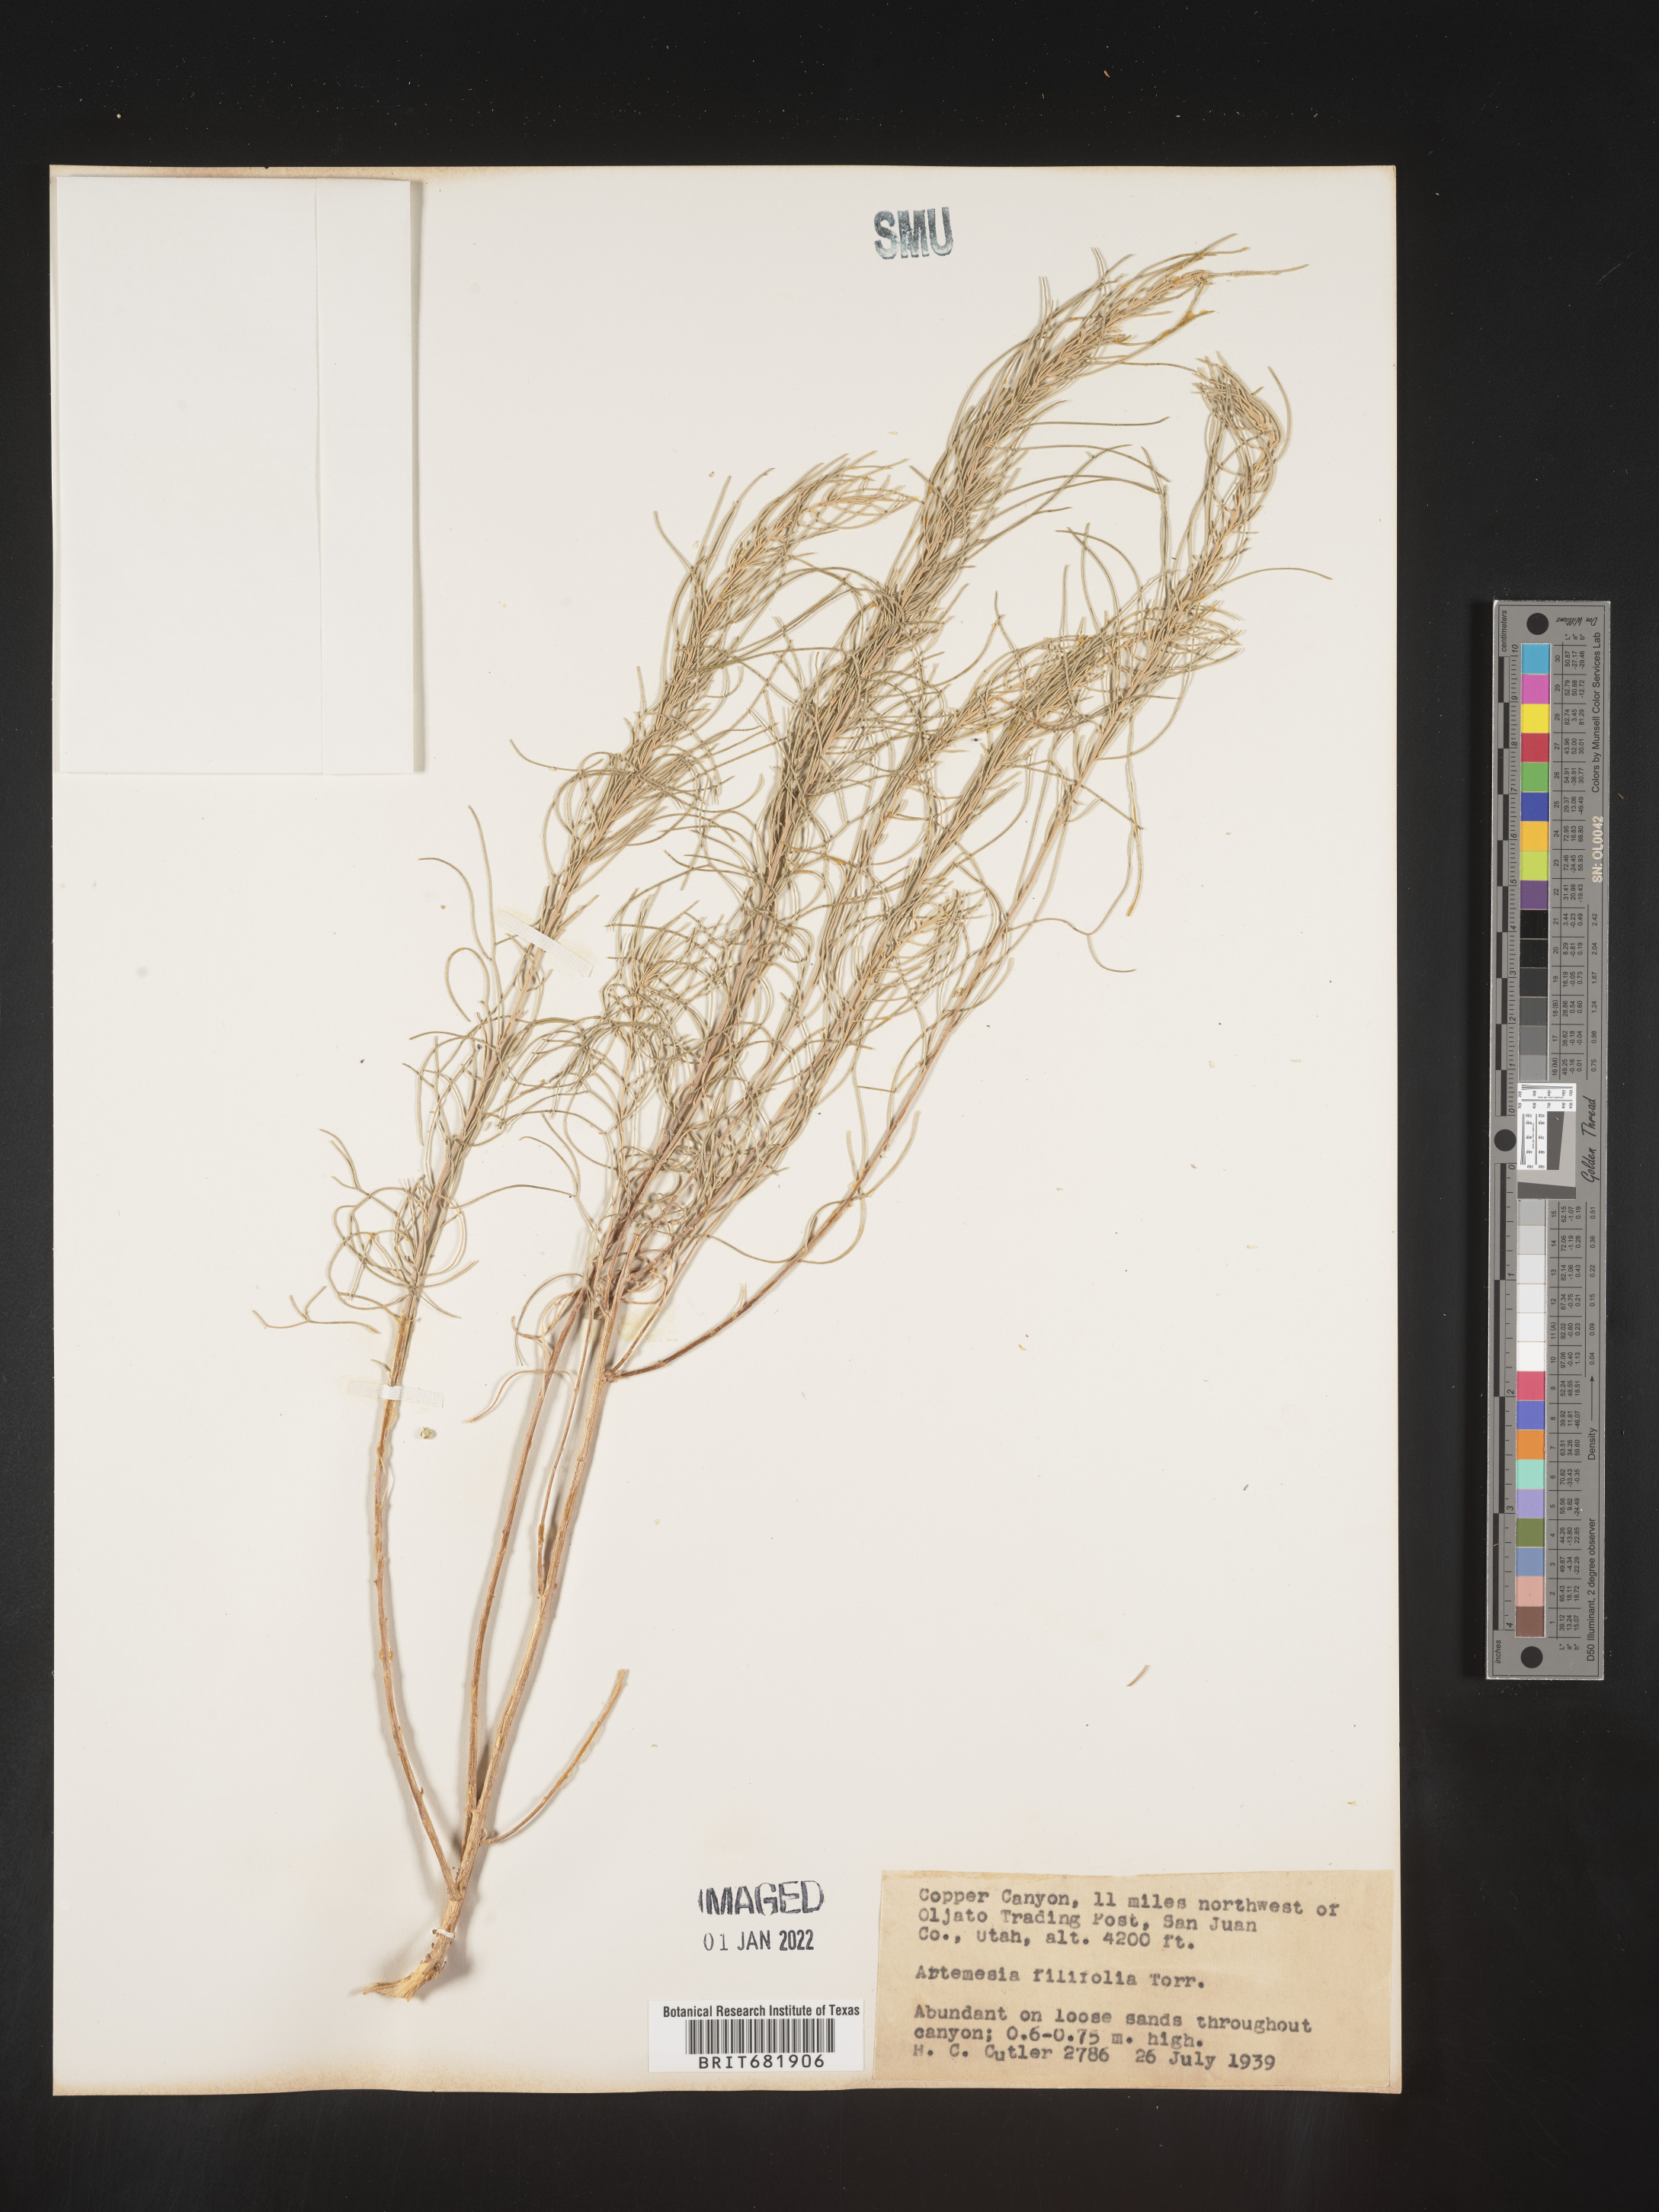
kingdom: Plantae
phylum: Tracheophyta
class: Magnoliopsida
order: Asterales
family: Asteraceae
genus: Artemisia
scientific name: Artemisia filifolia
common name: Sand-sage
